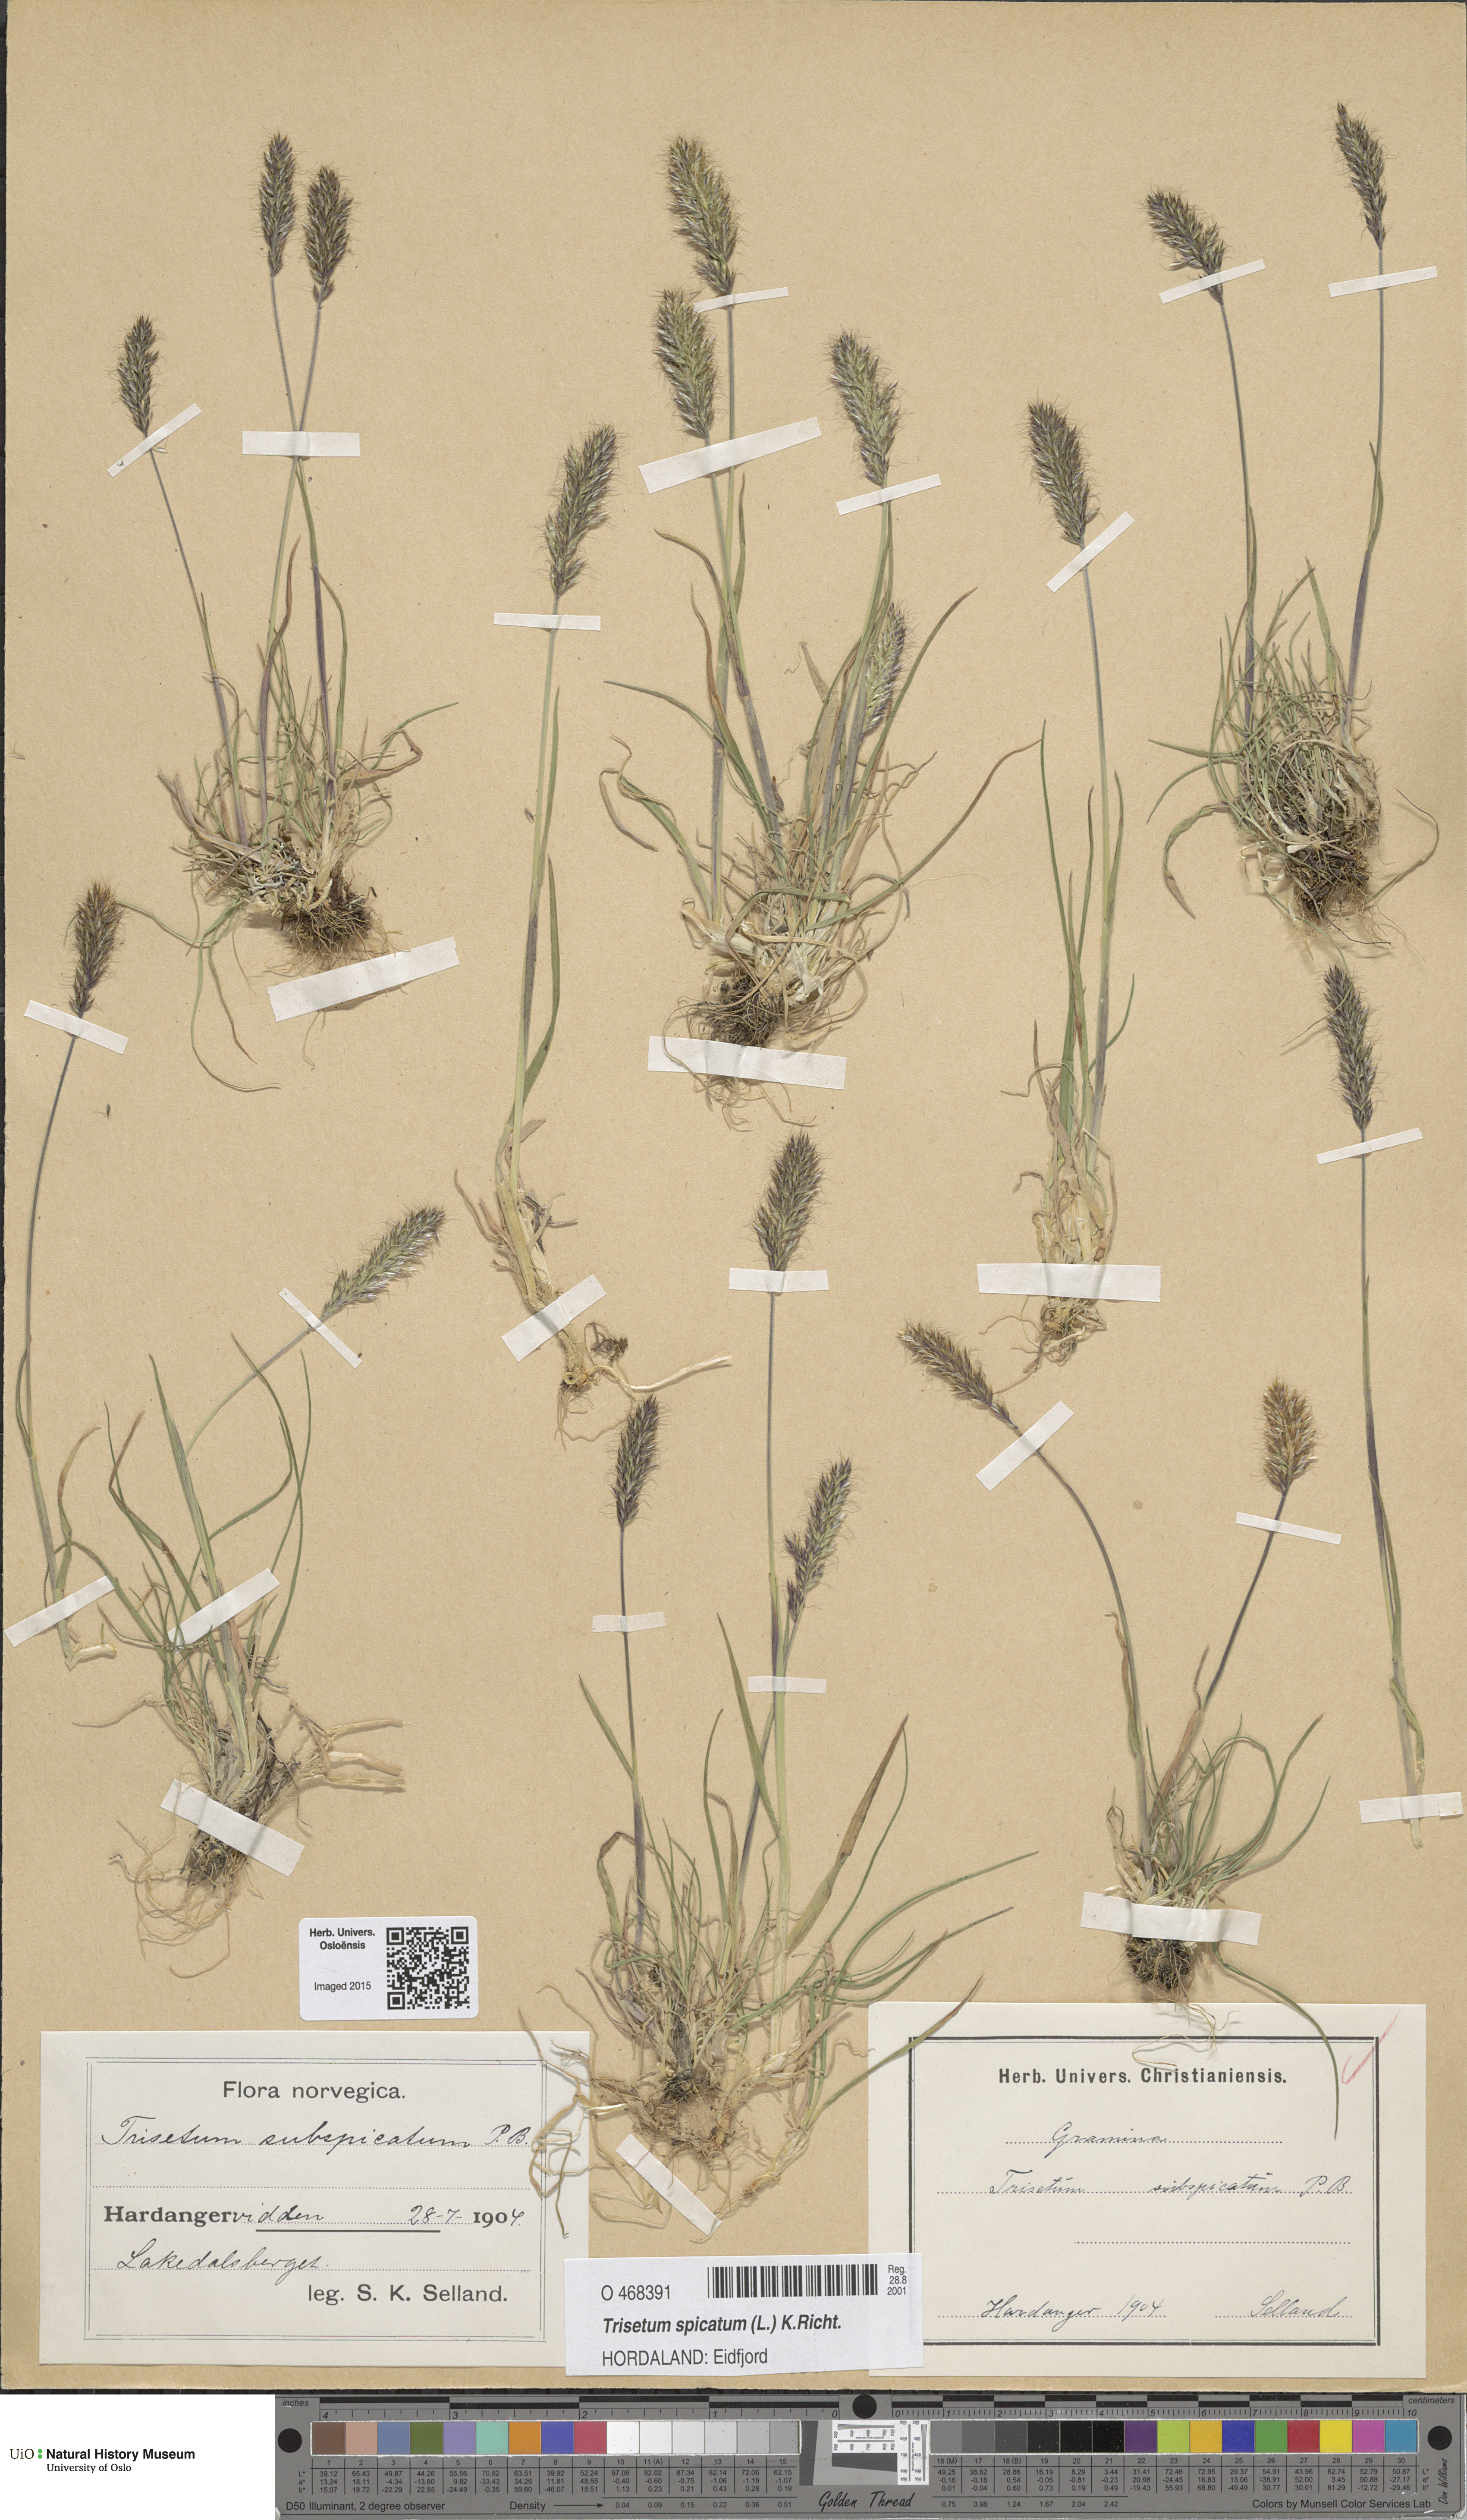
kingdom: Plantae
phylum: Tracheophyta
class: Liliopsida
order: Poales
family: Poaceae
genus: Koeleria
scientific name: Koeleria spicata
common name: Mountain trisetum
